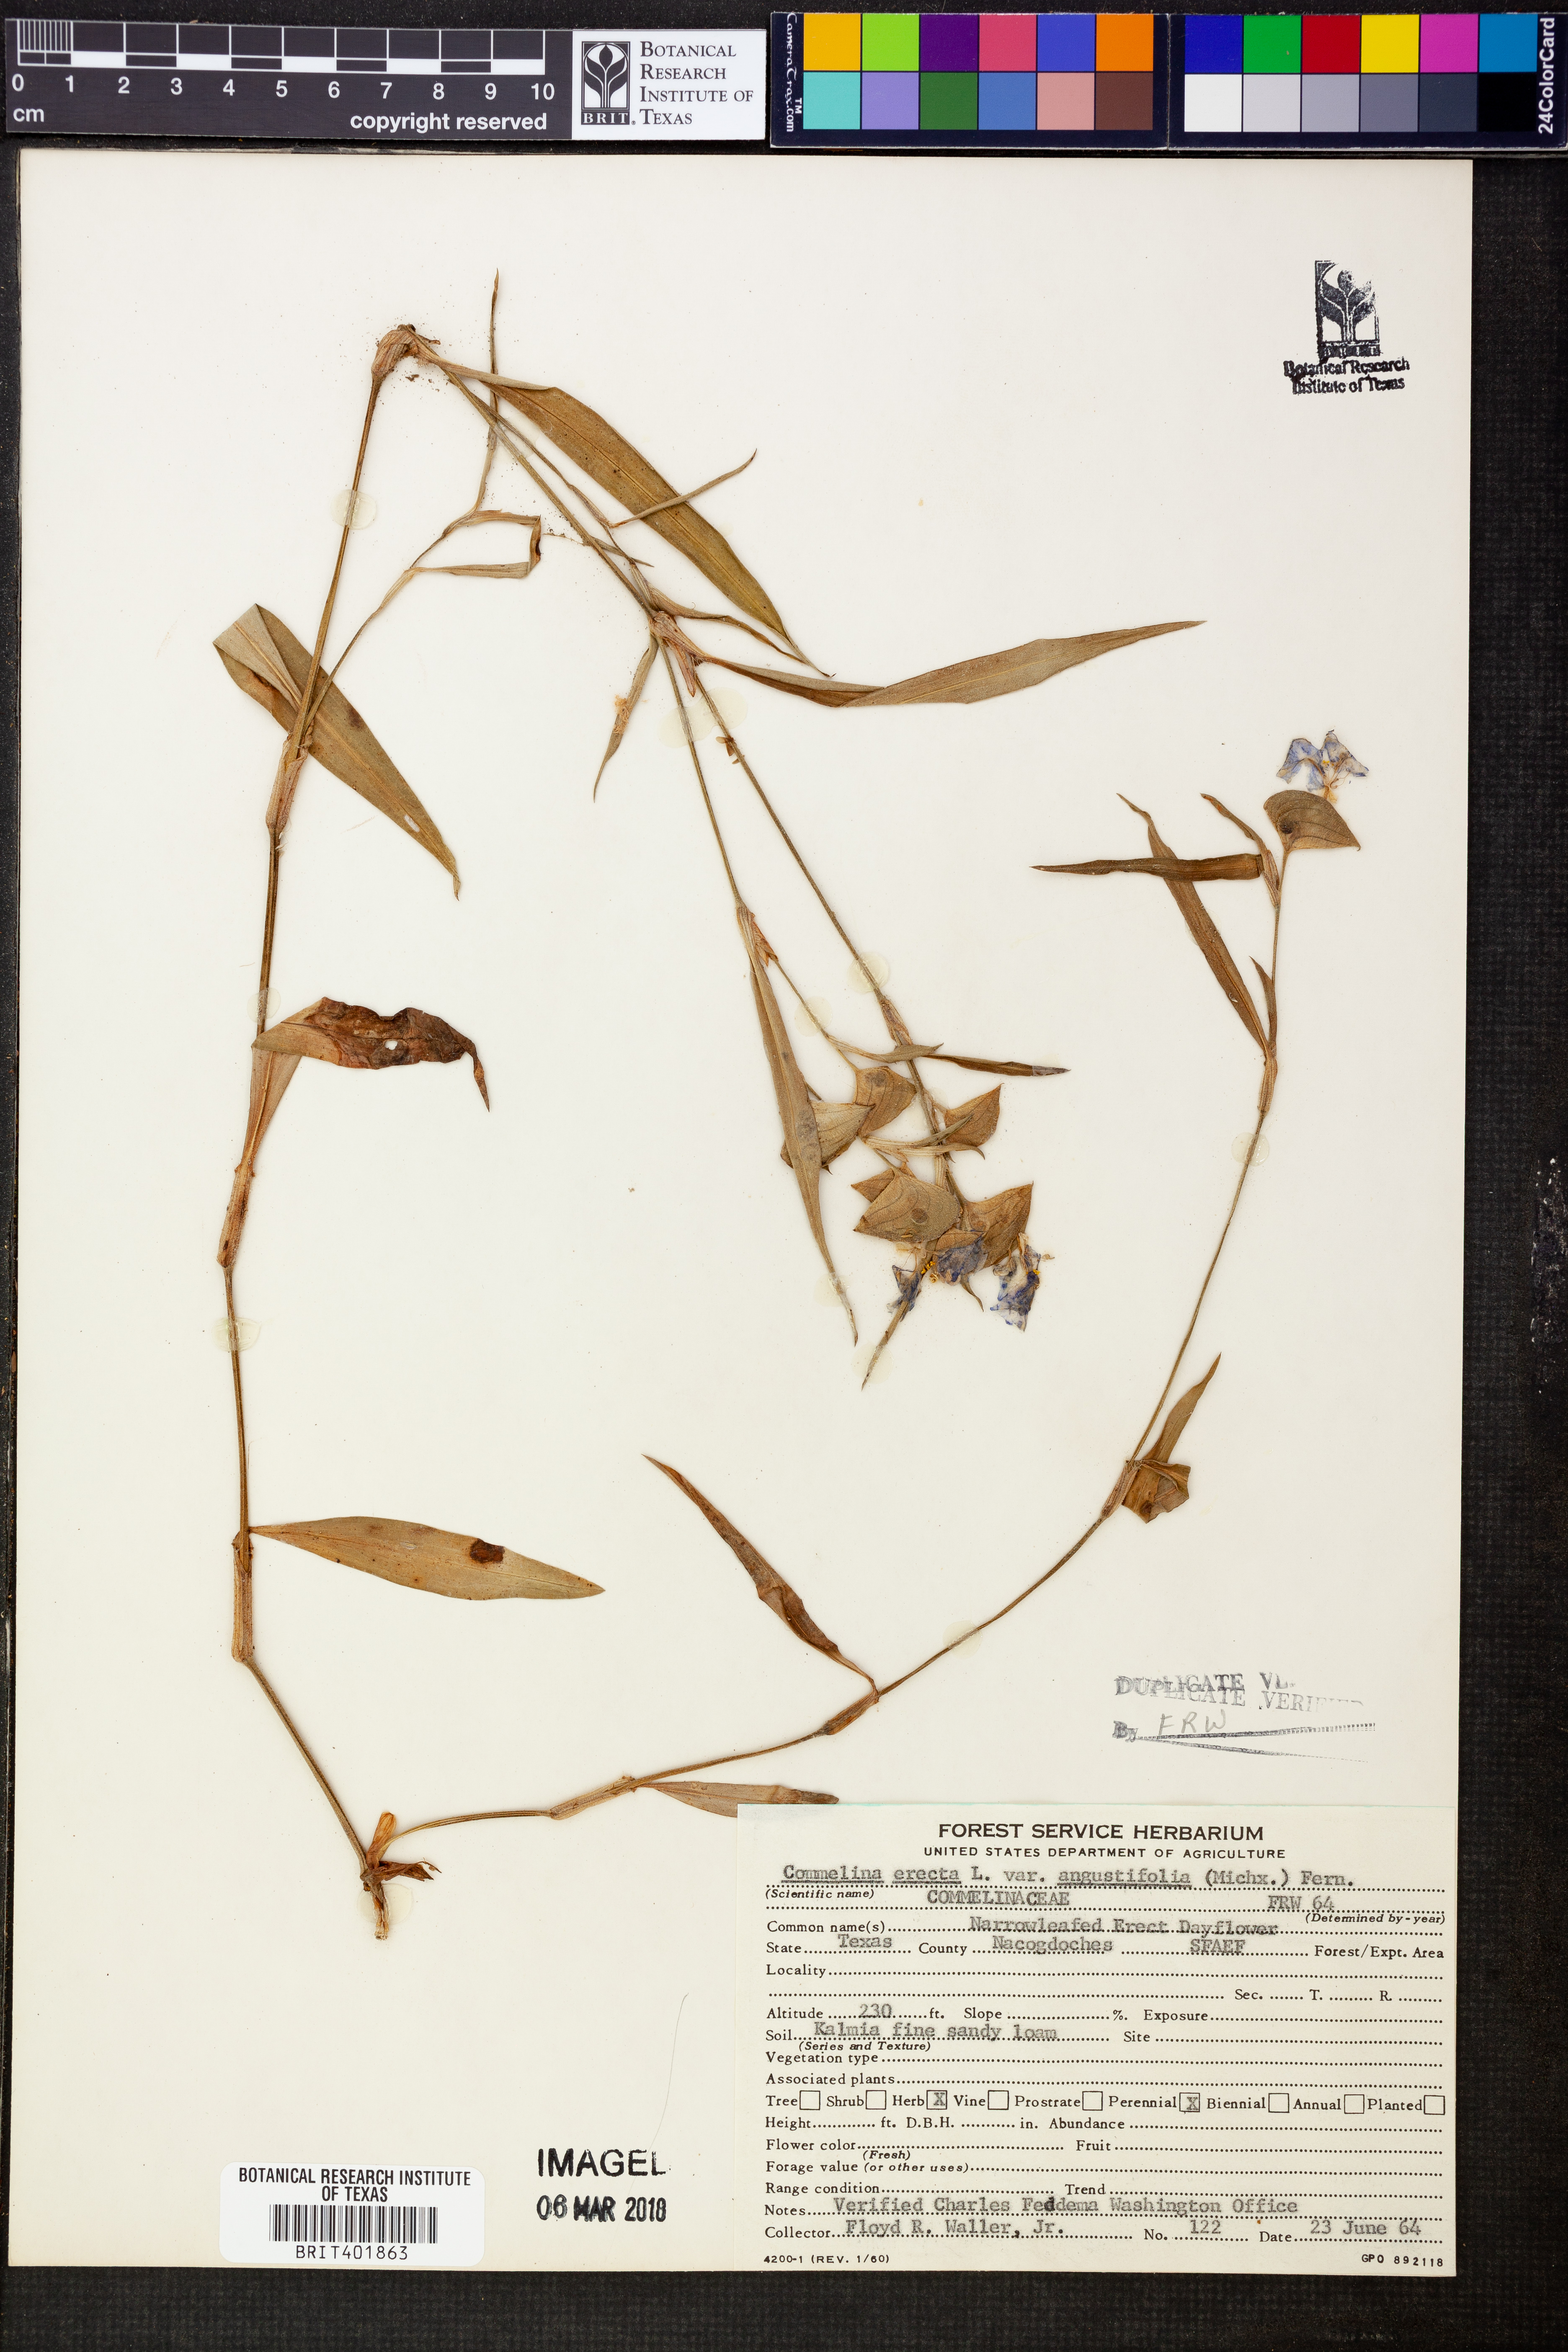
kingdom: Plantae
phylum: Tracheophyta
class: Liliopsida
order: Commelinales
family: Commelinaceae
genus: Commelina
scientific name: Commelina erecta
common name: Blousel blommetjie
